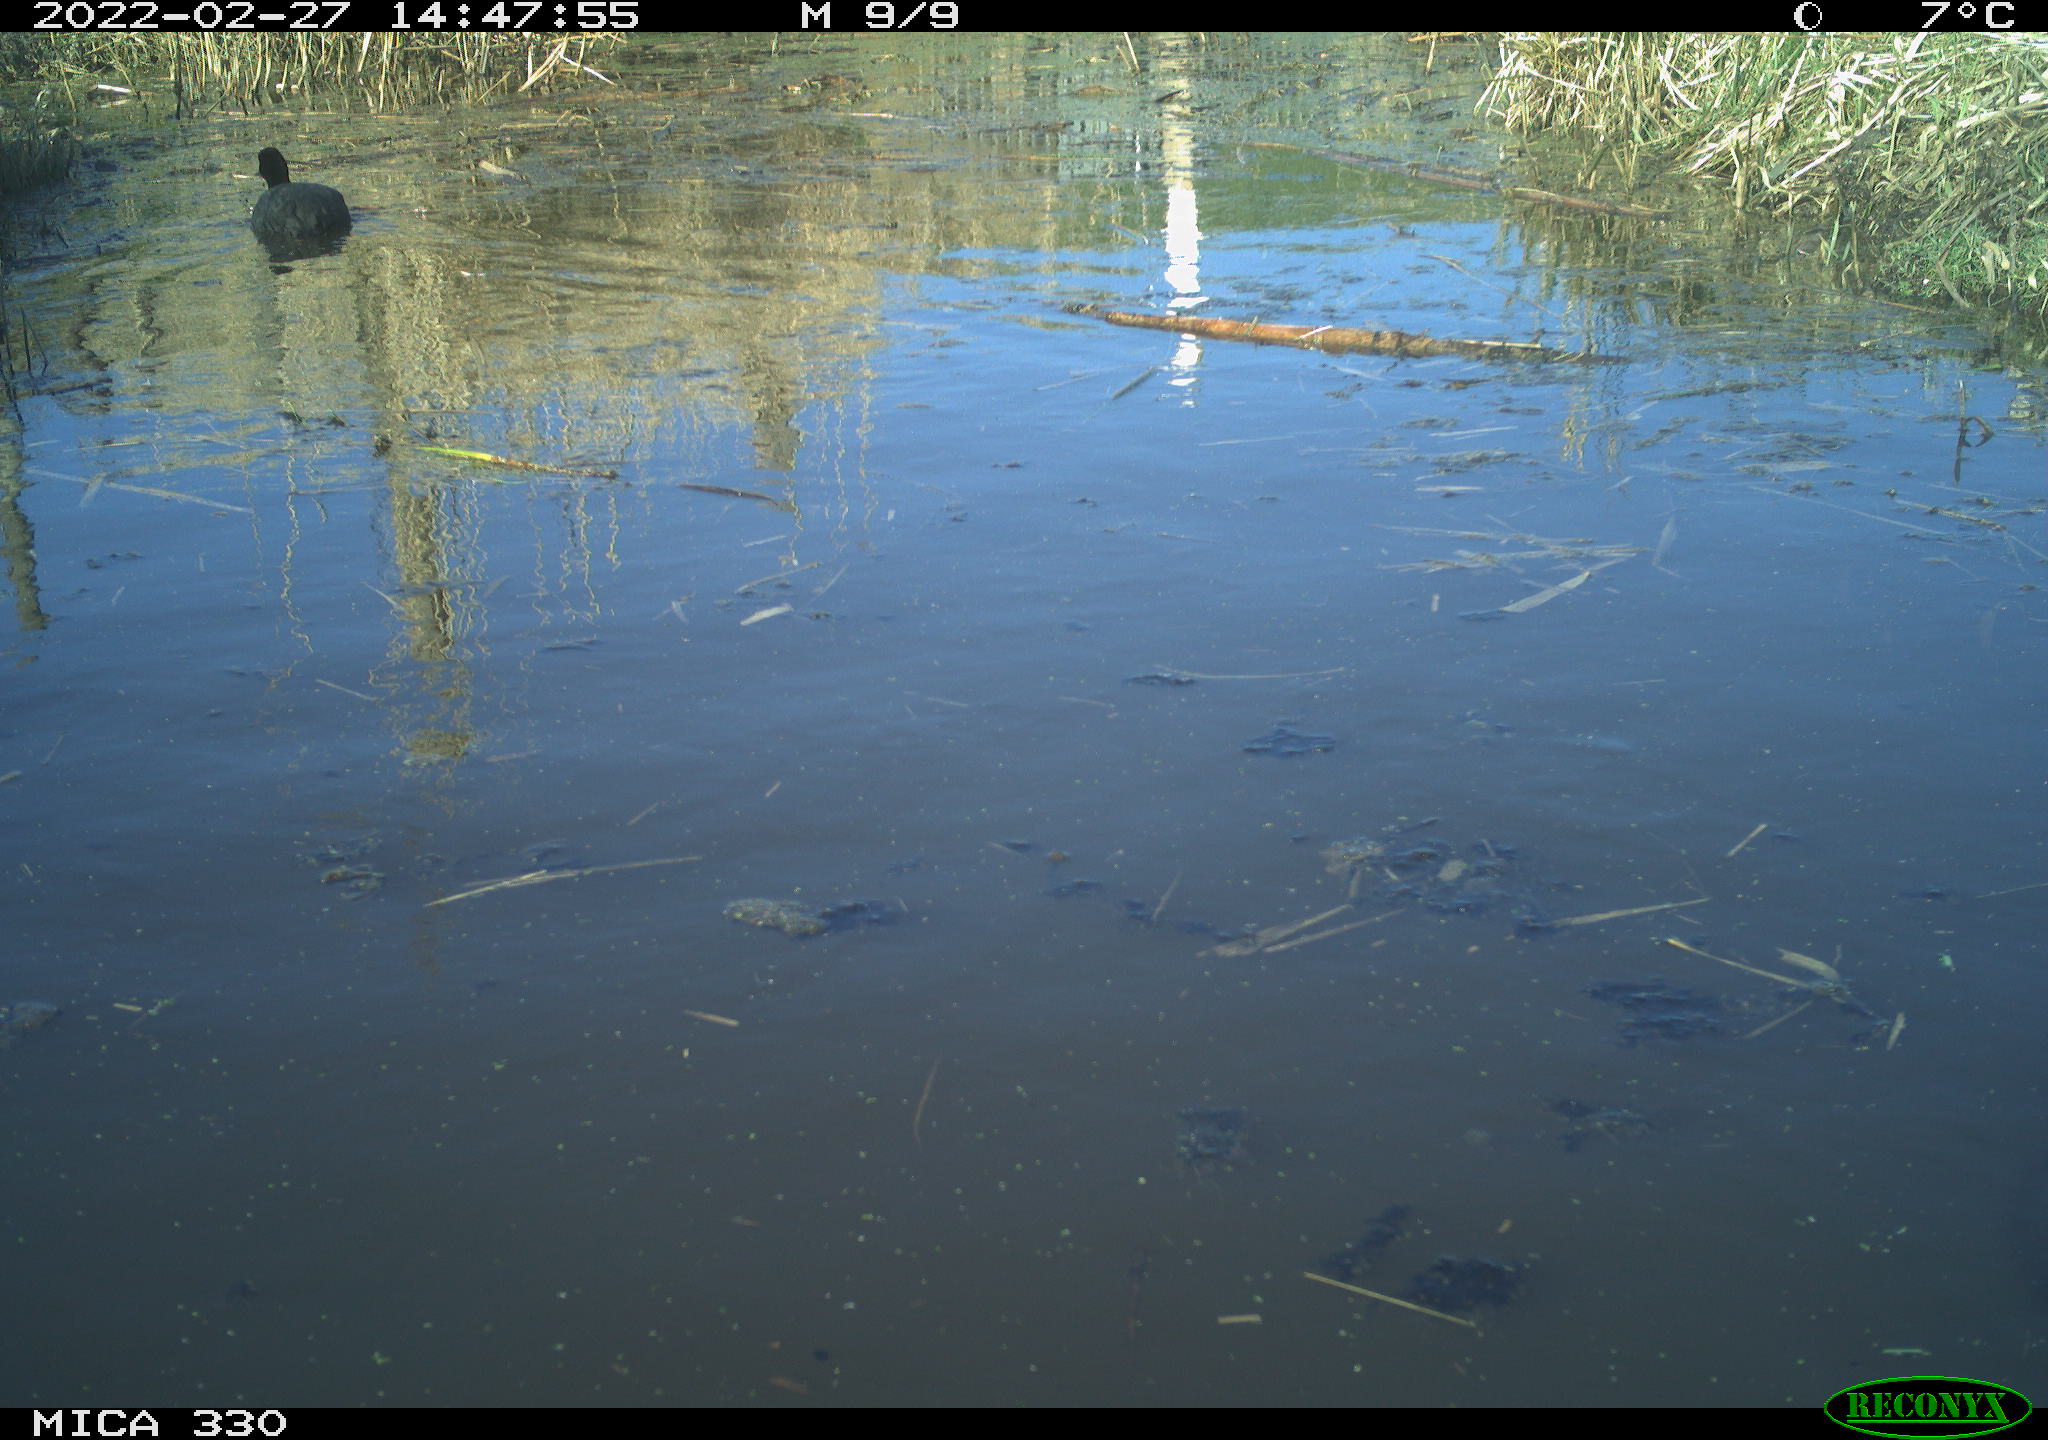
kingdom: Animalia
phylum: Chordata
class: Aves
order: Gruiformes
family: Rallidae
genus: Fulica
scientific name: Fulica atra
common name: Eurasian coot
